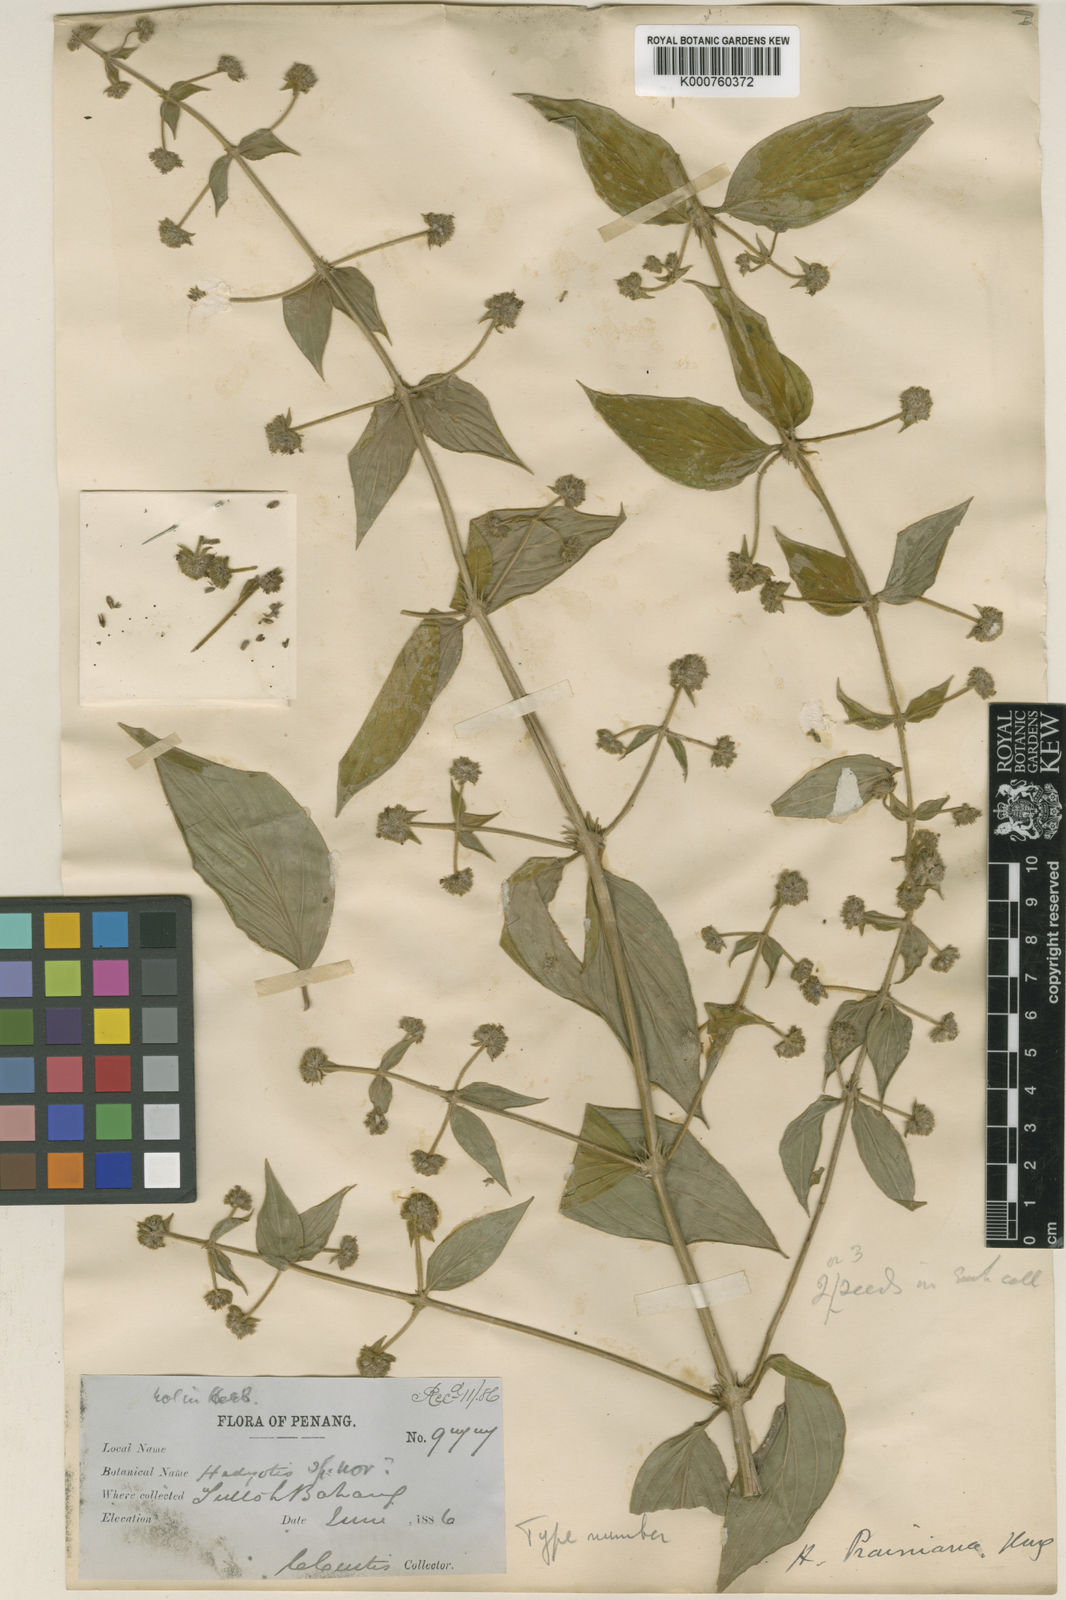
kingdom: Plantae
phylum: Tracheophyta
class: Magnoliopsida
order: Gentianales
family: Rubiaceae
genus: Dimetia
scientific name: Dimetia prainiana
